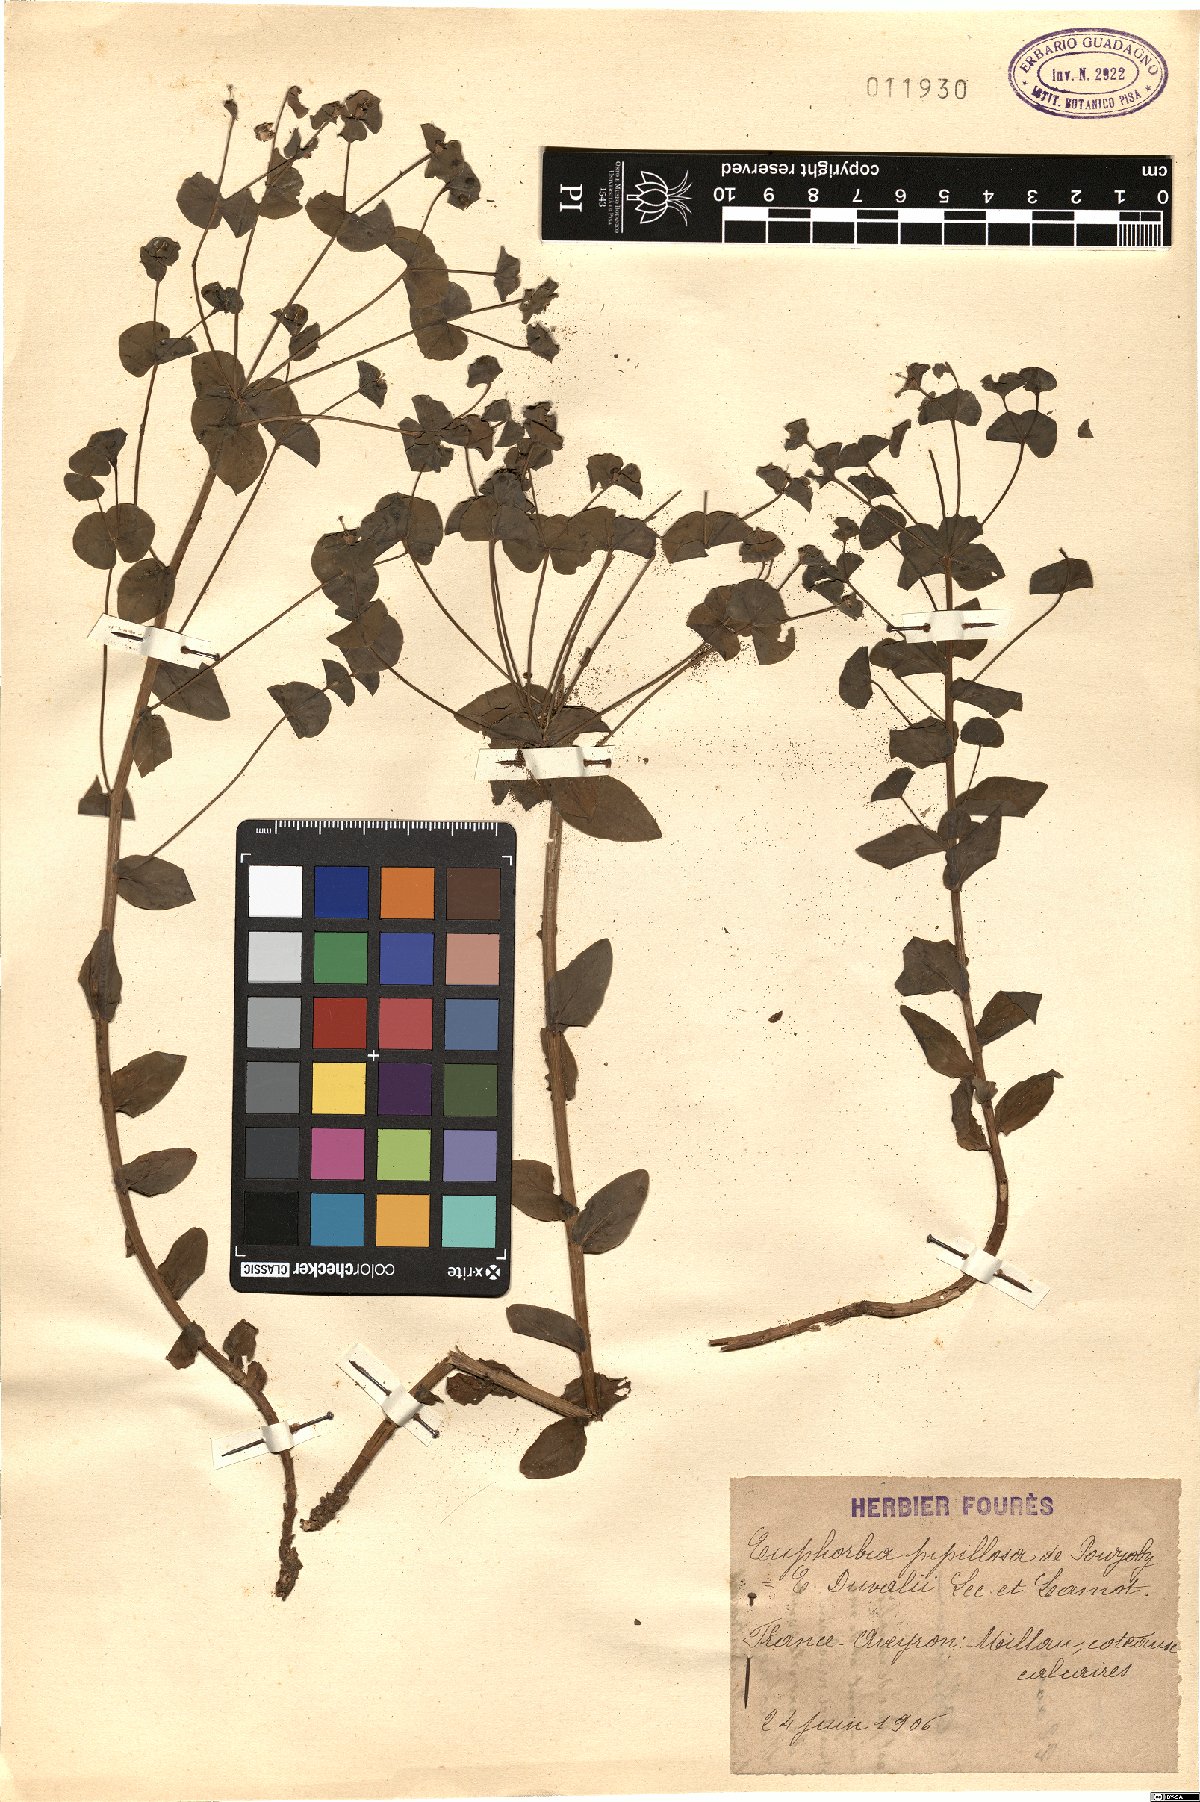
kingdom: Plantae
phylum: Tracheophyta
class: Magnoliopsida
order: Malpighiales
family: Euphorbiaceae
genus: Euphorbia
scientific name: Euphorbia papillosa
